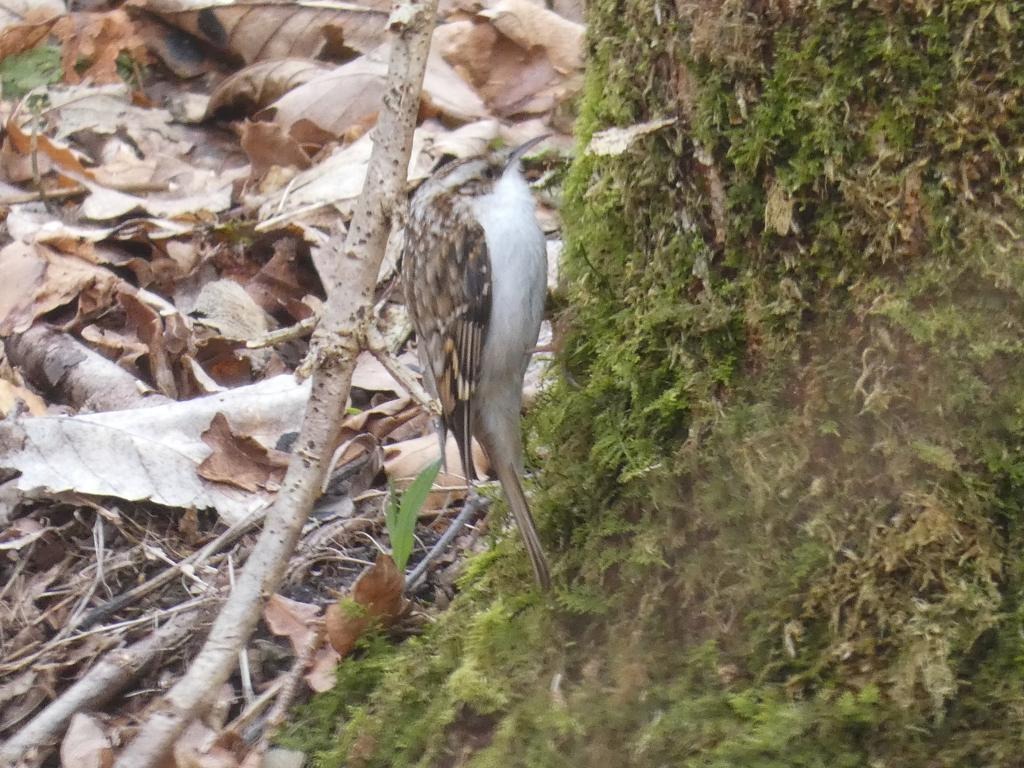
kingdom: Animalia
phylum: Chordata
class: Aves
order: Passeriformes
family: Certhiidae
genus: Certhia
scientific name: Certhia familiaris
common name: Træløber
